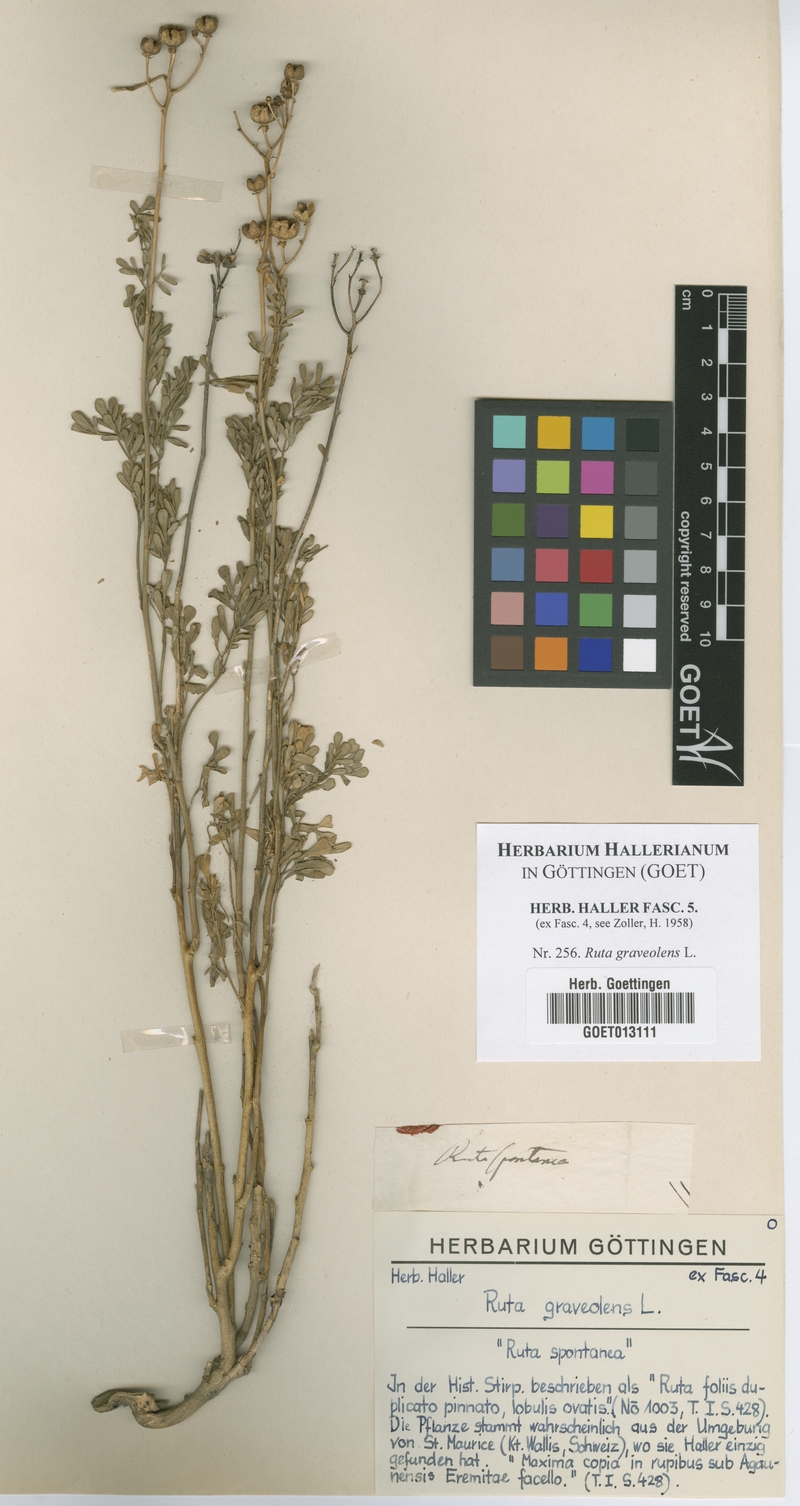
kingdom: Plantae
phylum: Tracheophyta
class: Magnoliopsida
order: Sapindales
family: Rutaceae
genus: Ruta
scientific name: Ruta graveolens
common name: Common rue
